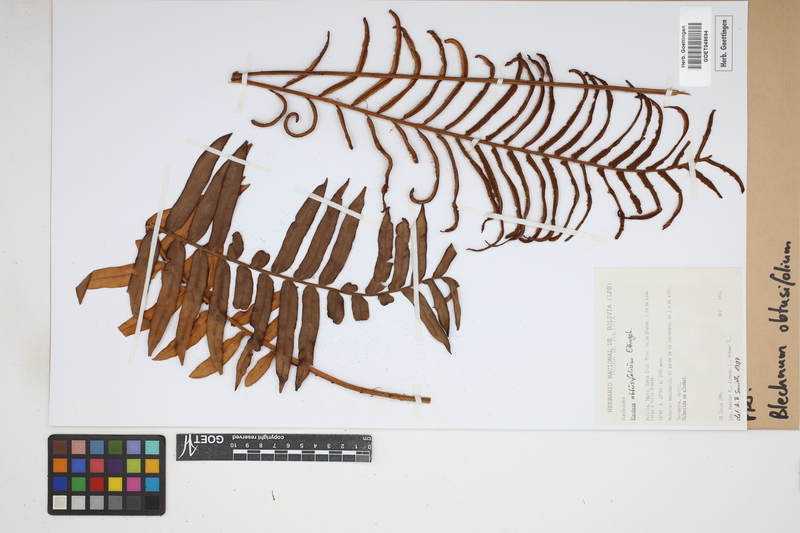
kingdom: Plantae
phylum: Tracheophyta
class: Polypodiopsida
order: Polypodiales
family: Blechnaceae
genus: Lomariocycas
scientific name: Lomariocycas obtusifolia
